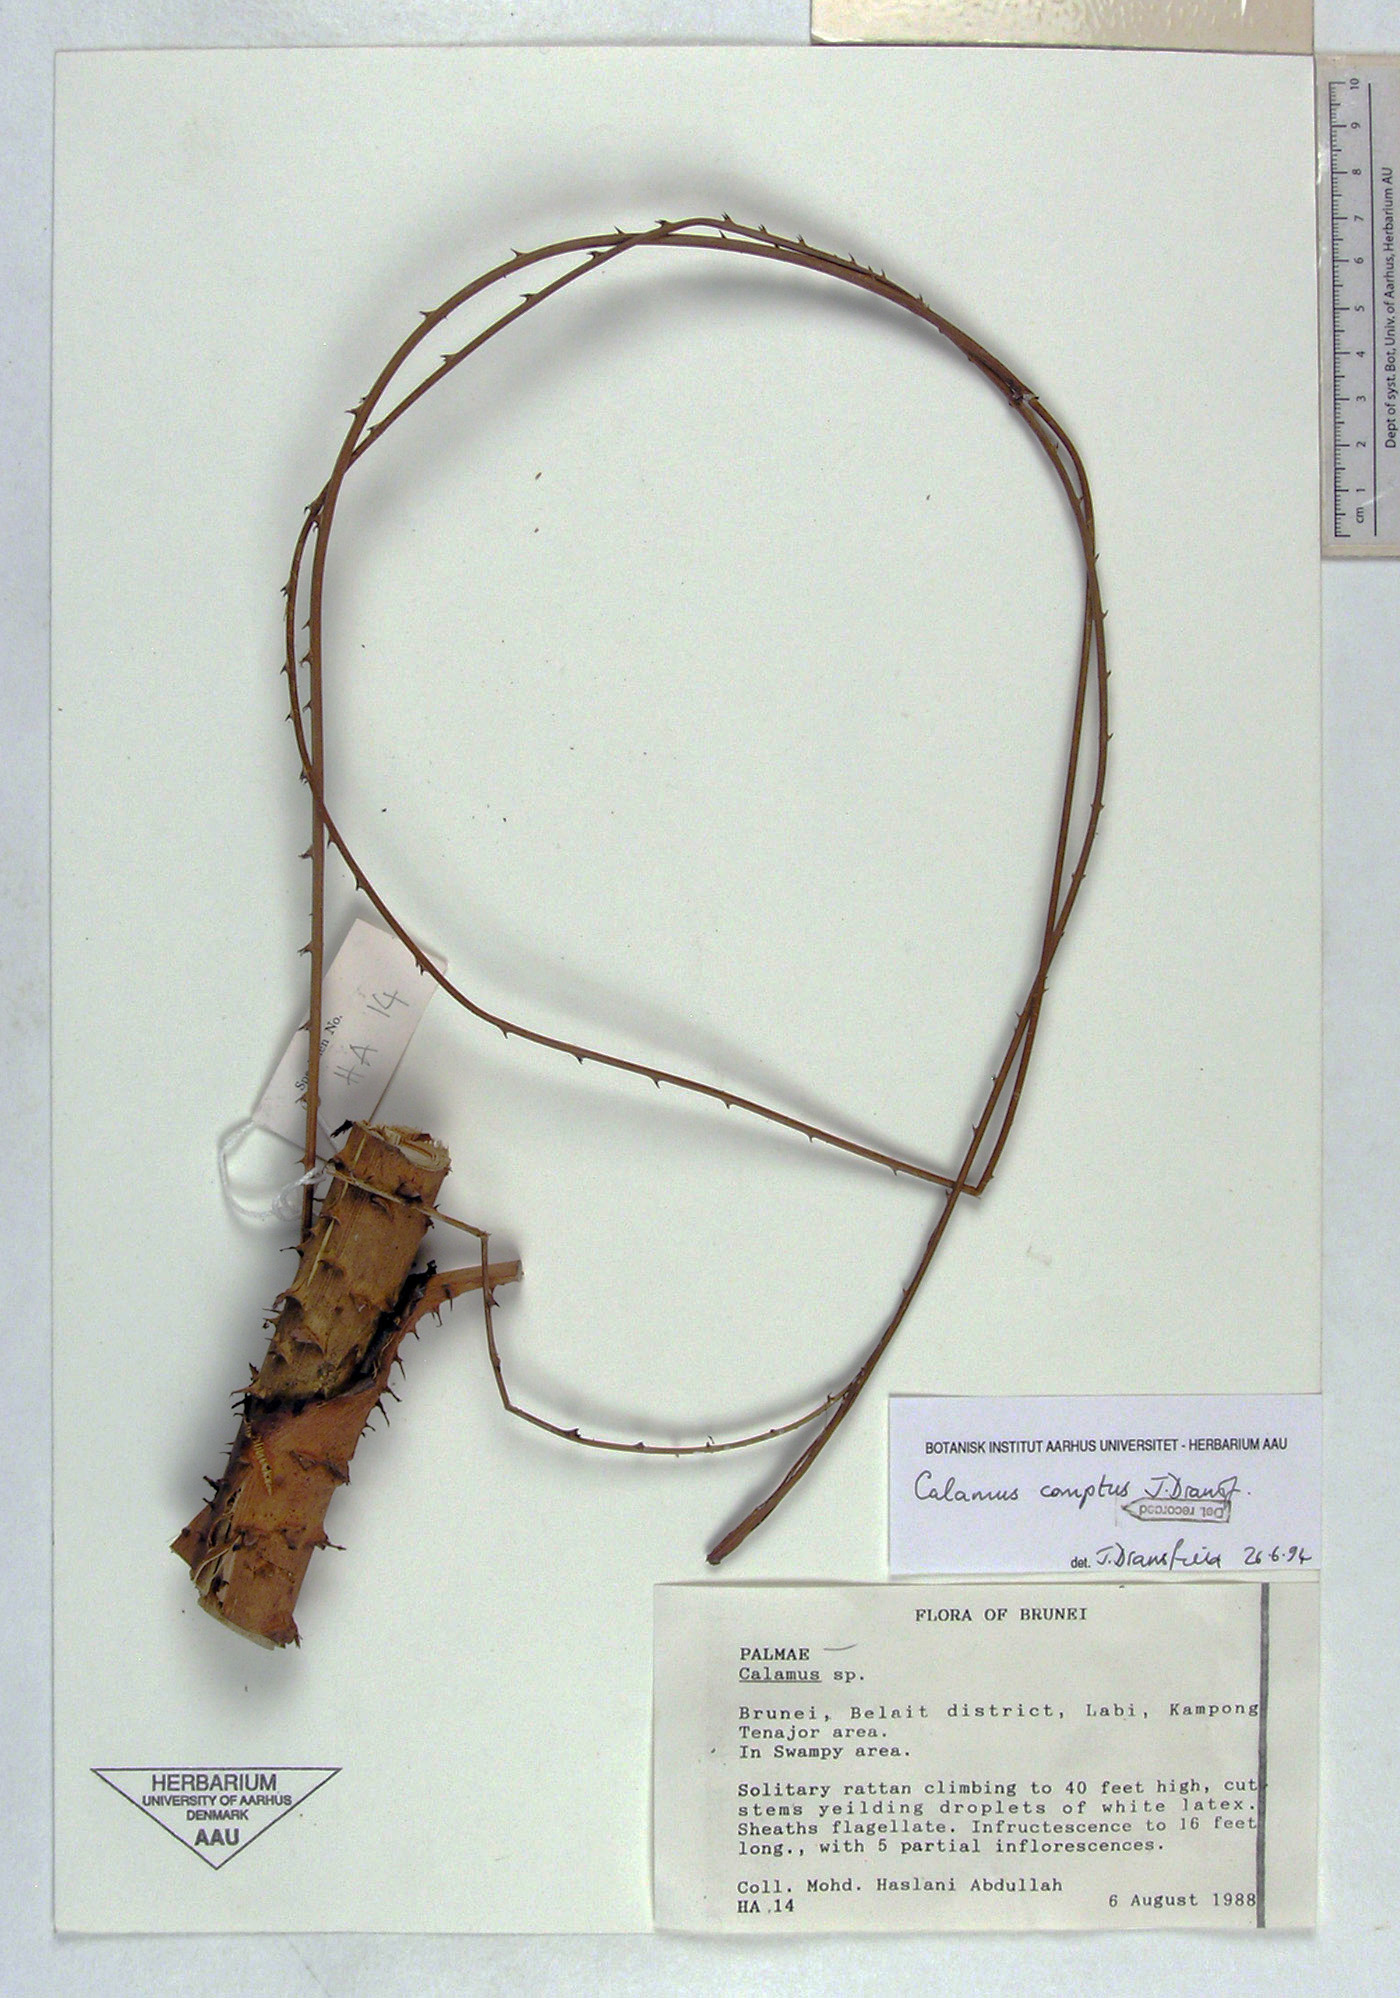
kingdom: Plantae
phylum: Tracheophyta
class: Liliopsida
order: Arecales
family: Arecaceae
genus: Calamus
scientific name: Calamus comptus
